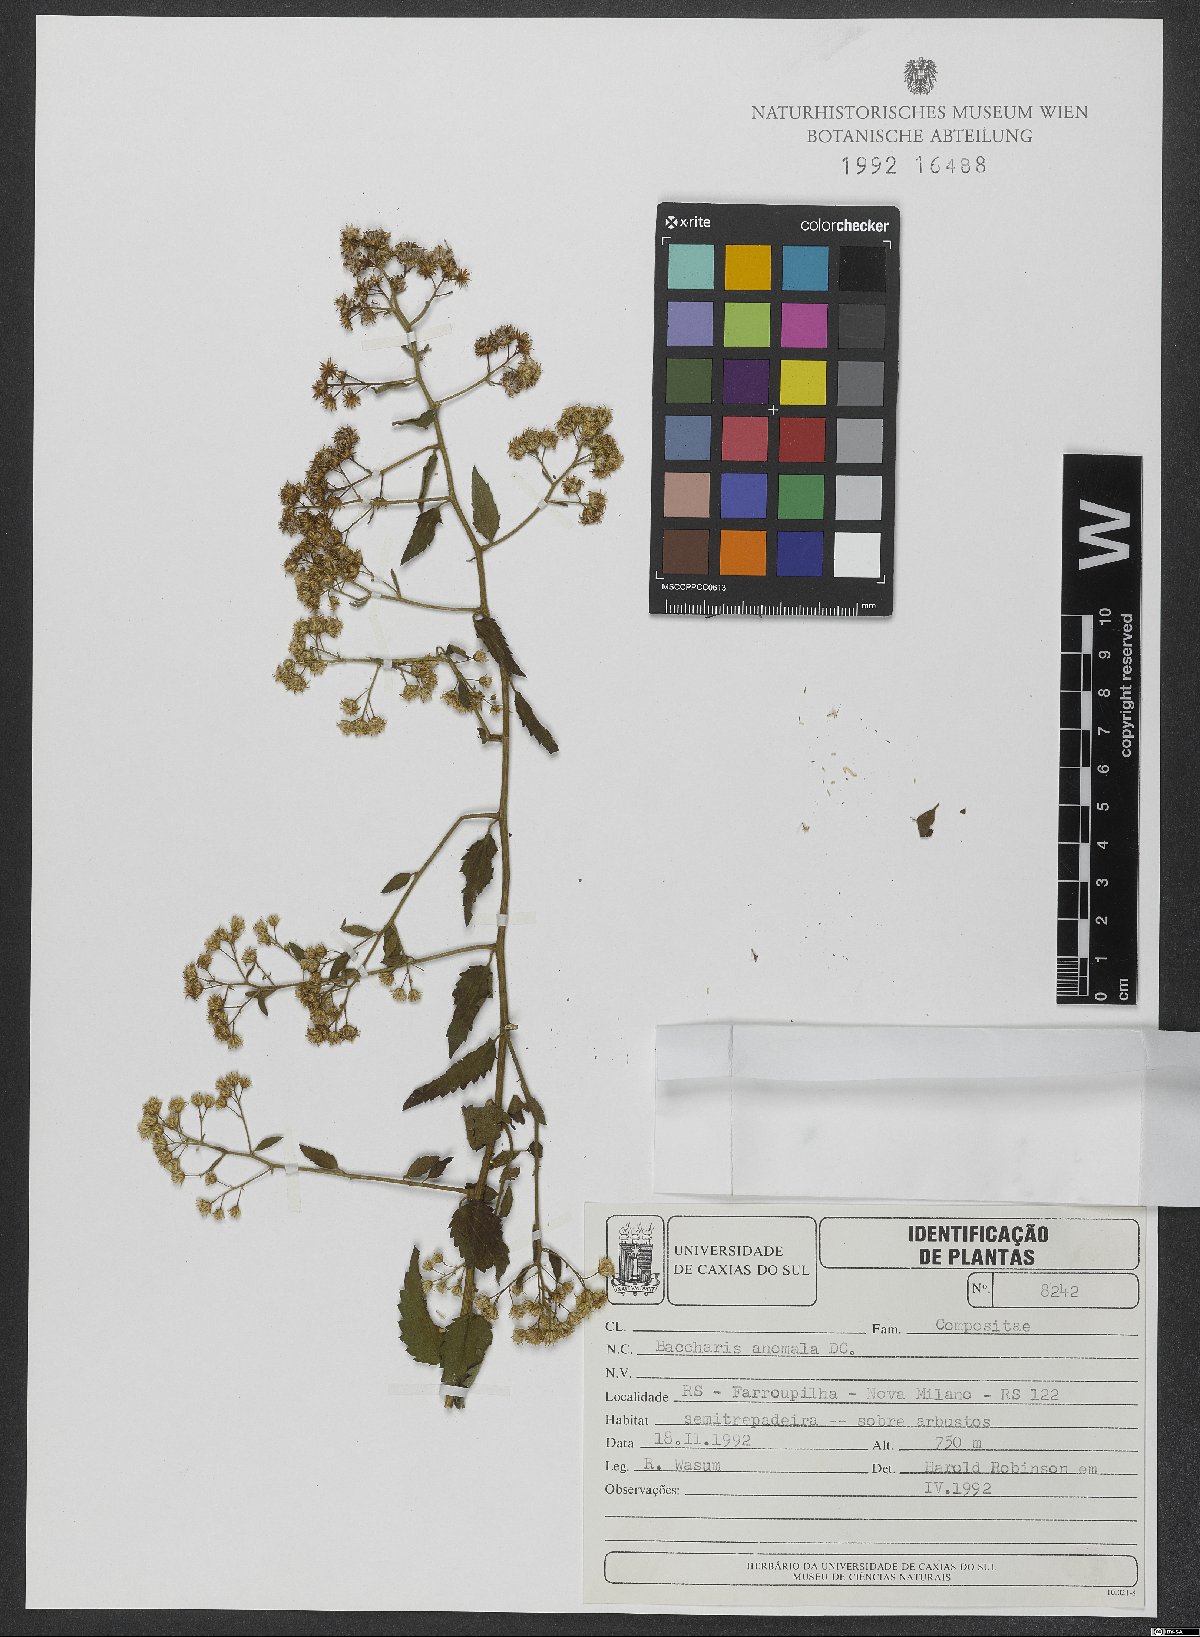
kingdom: Plantae
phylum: Tracheophyta
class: Magnoliopsida
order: Asterales
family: Asteraceae
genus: Baccharis
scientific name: Baccharis anomala
